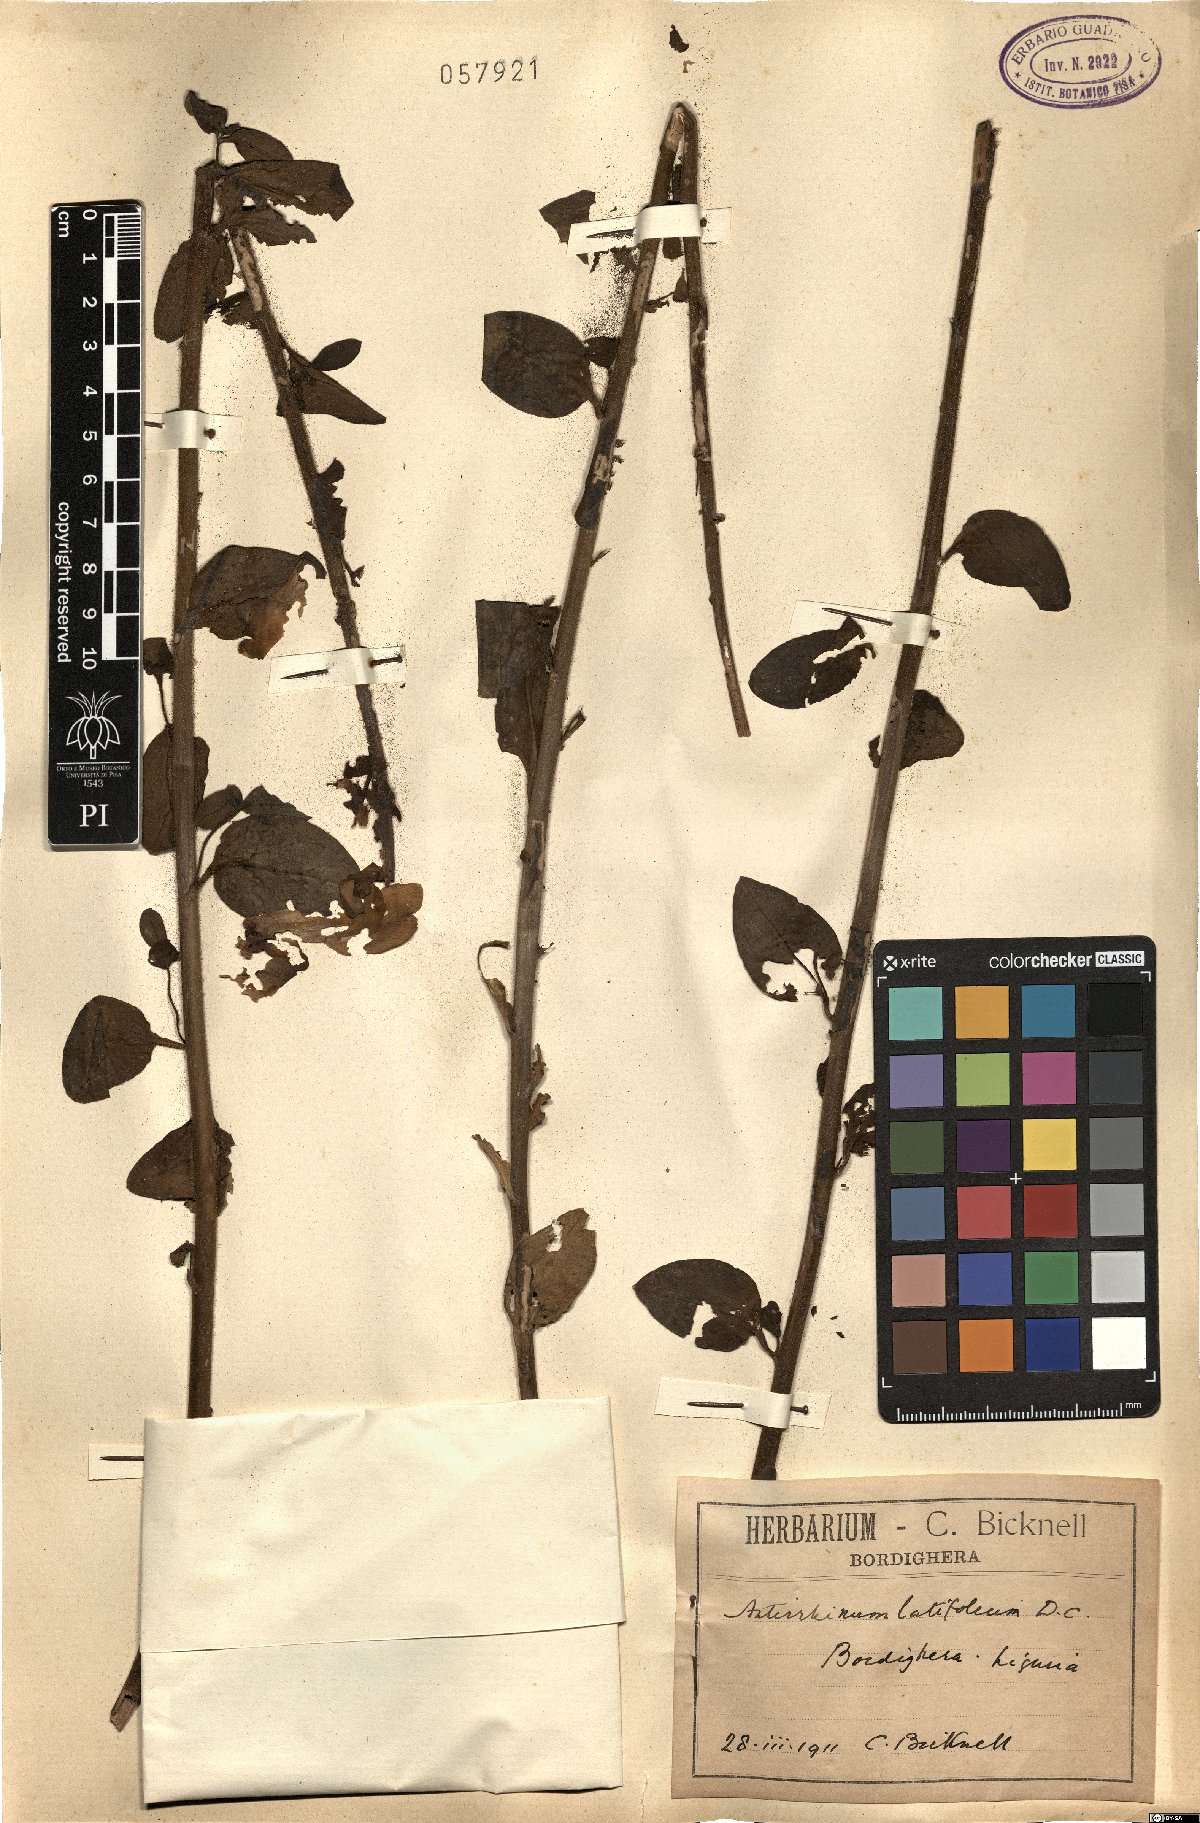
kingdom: Plantae
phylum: Tracheophyta
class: Magnoliopsida
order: Lamiales
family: Plantaginaceae
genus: Antirrhinum
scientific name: Antirrhinum latifolium
